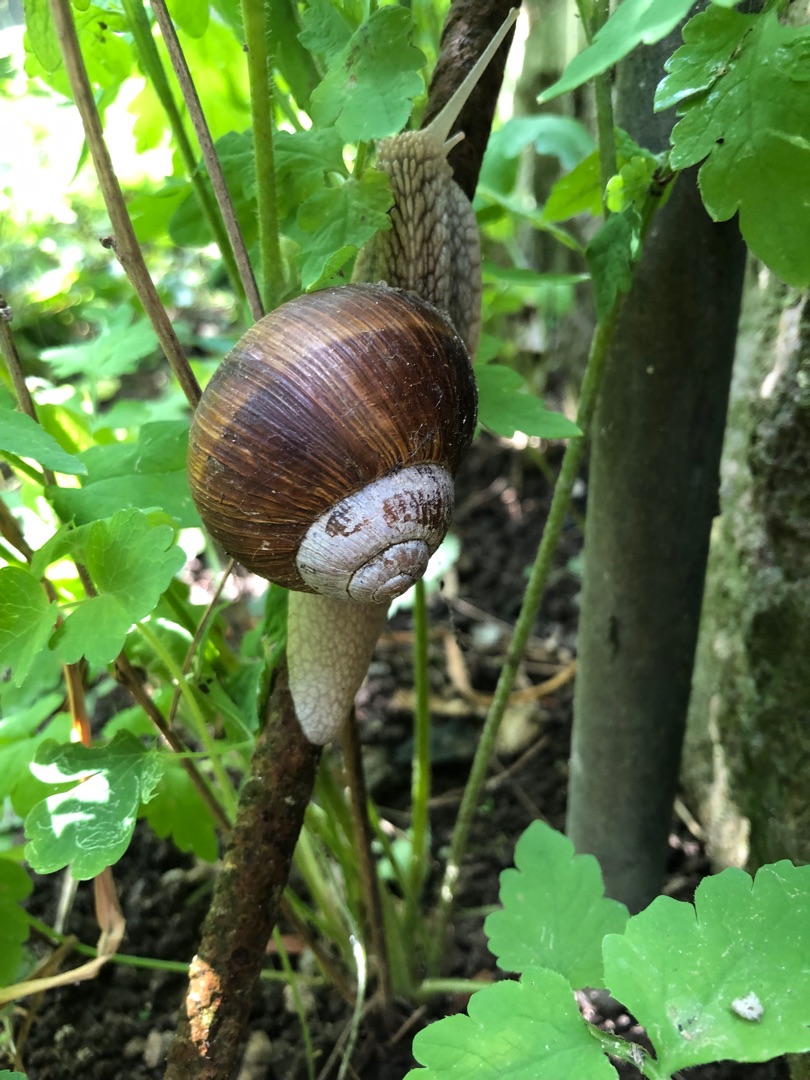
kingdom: Animalia
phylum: Mollusca
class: Gastropoda
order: Stylommatophora
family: Helicidae
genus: Helix
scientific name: Helix pomatia
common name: Vinbjergsnegl
